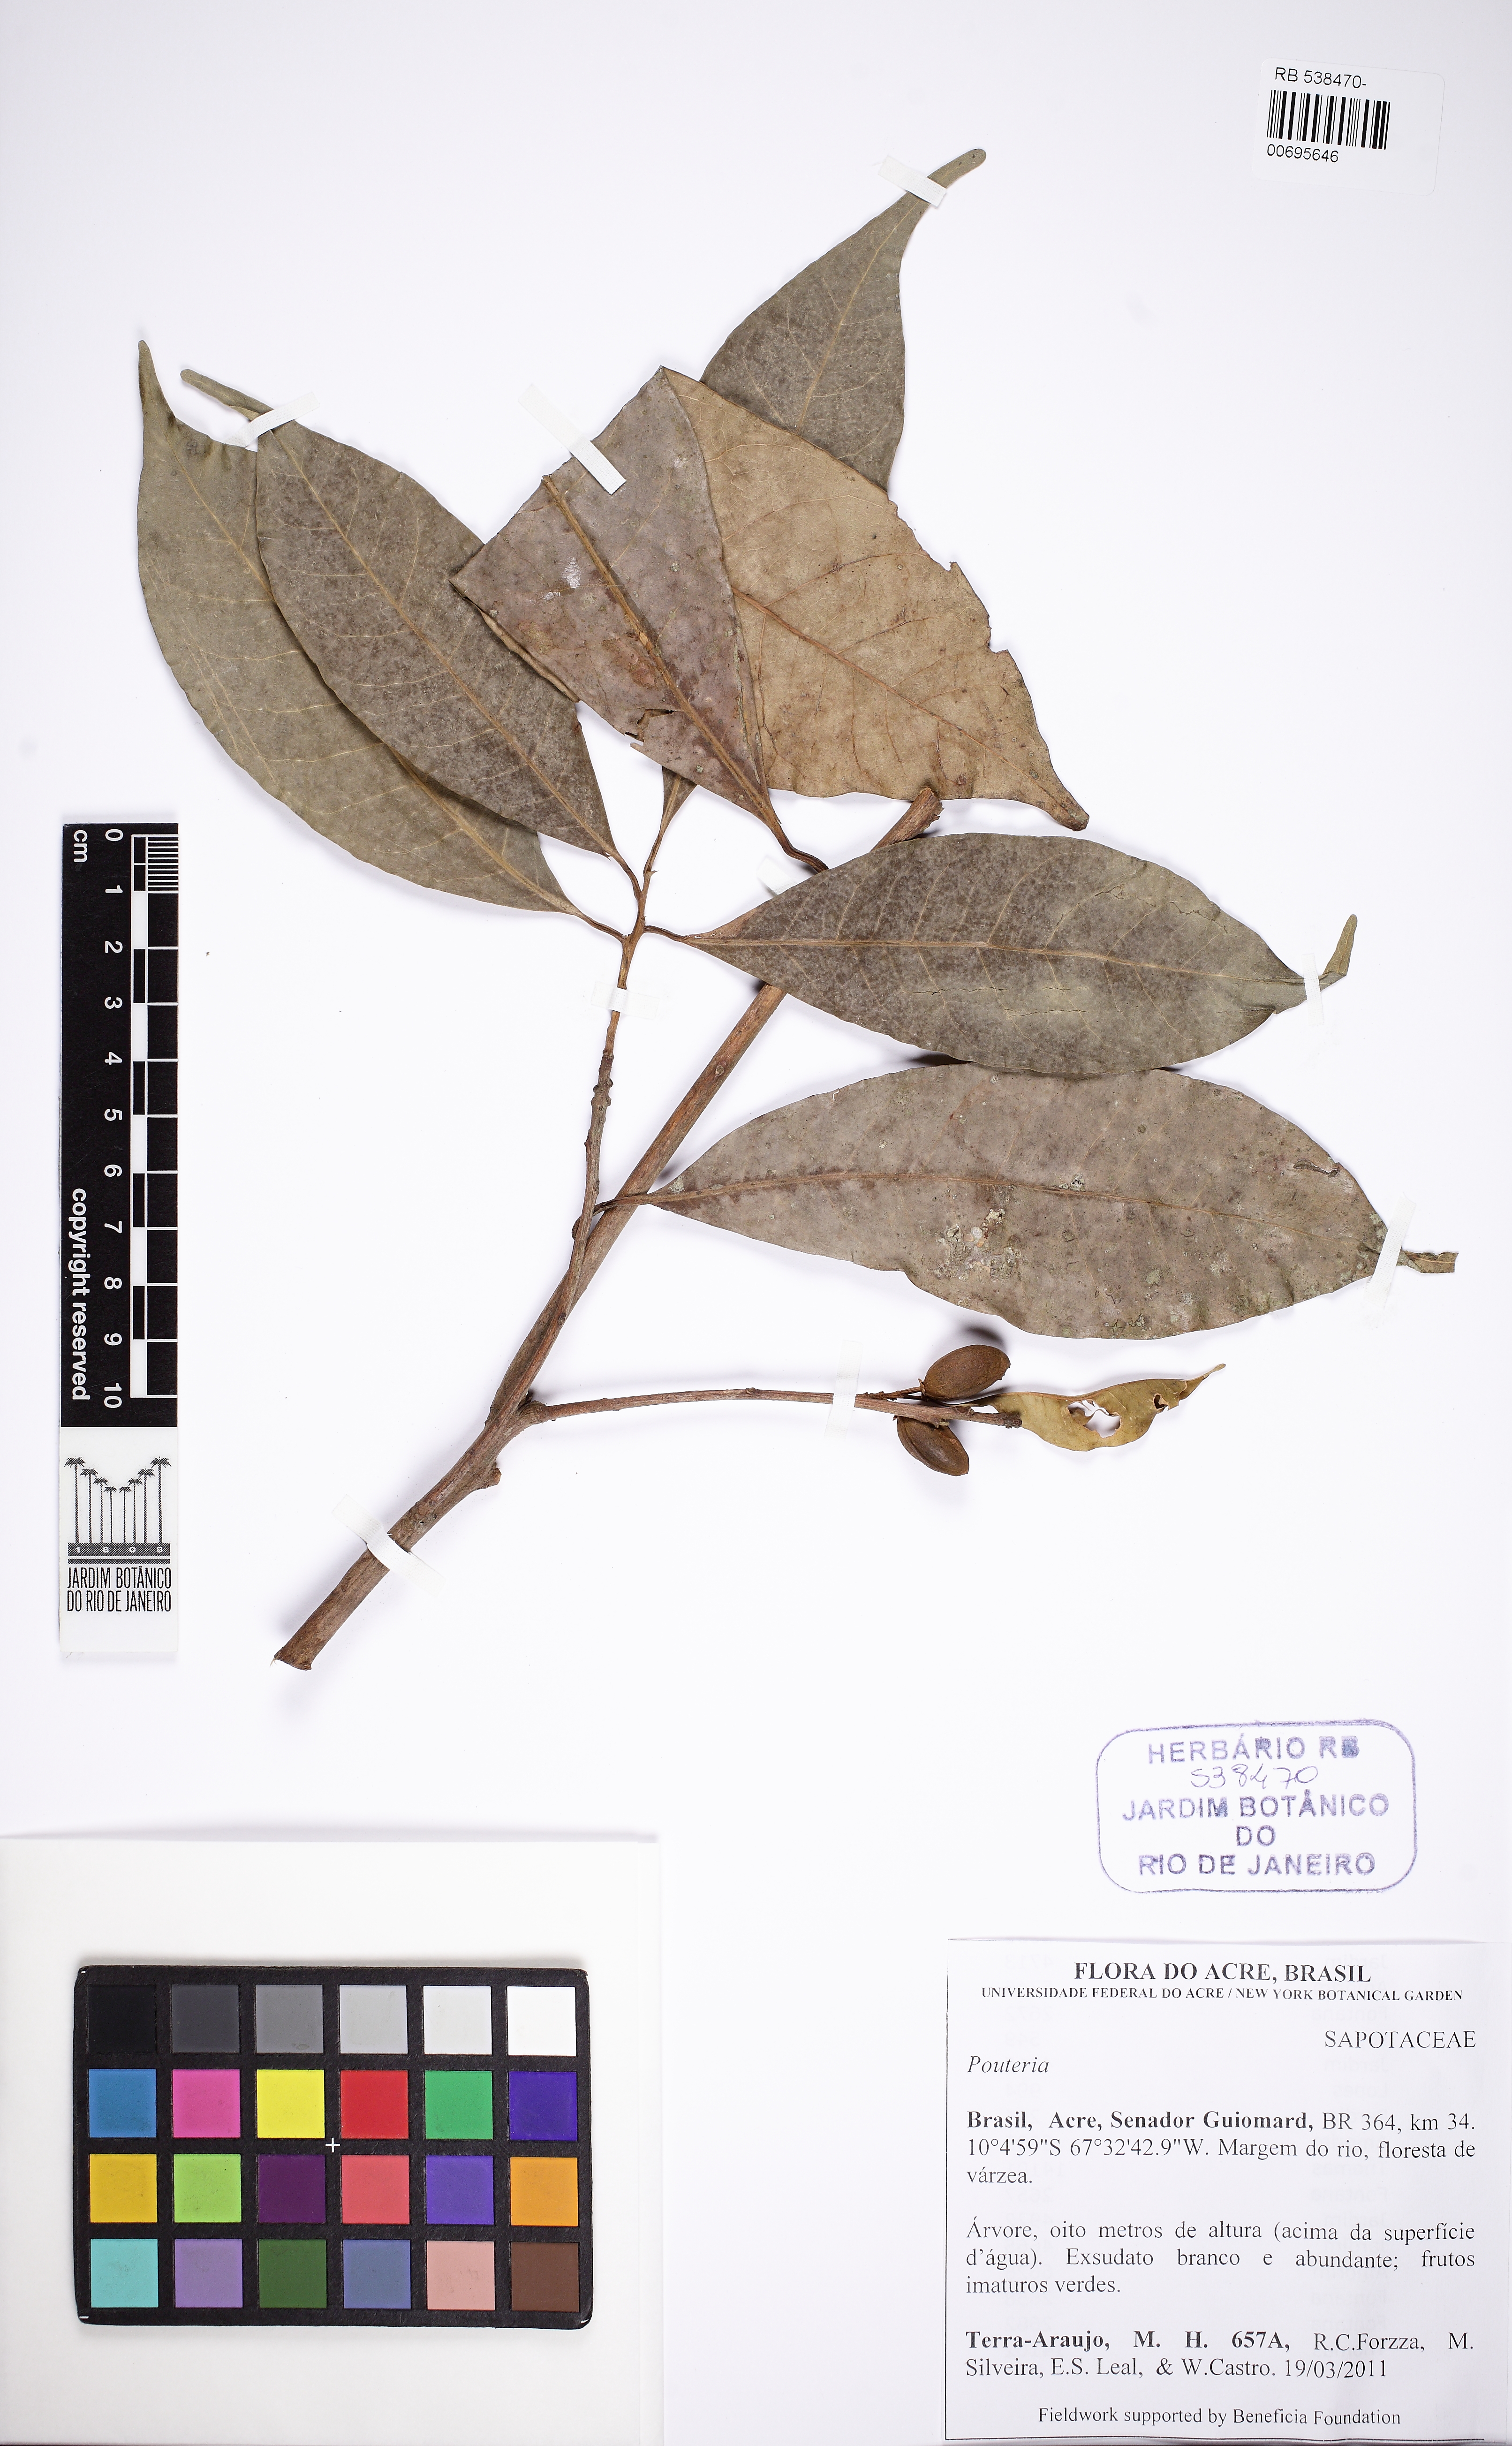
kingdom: Plantae
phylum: Tracheophyta
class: Magnoliopsida
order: Ericales
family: Sapotaceae
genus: Pouteria
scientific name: Pouteria
